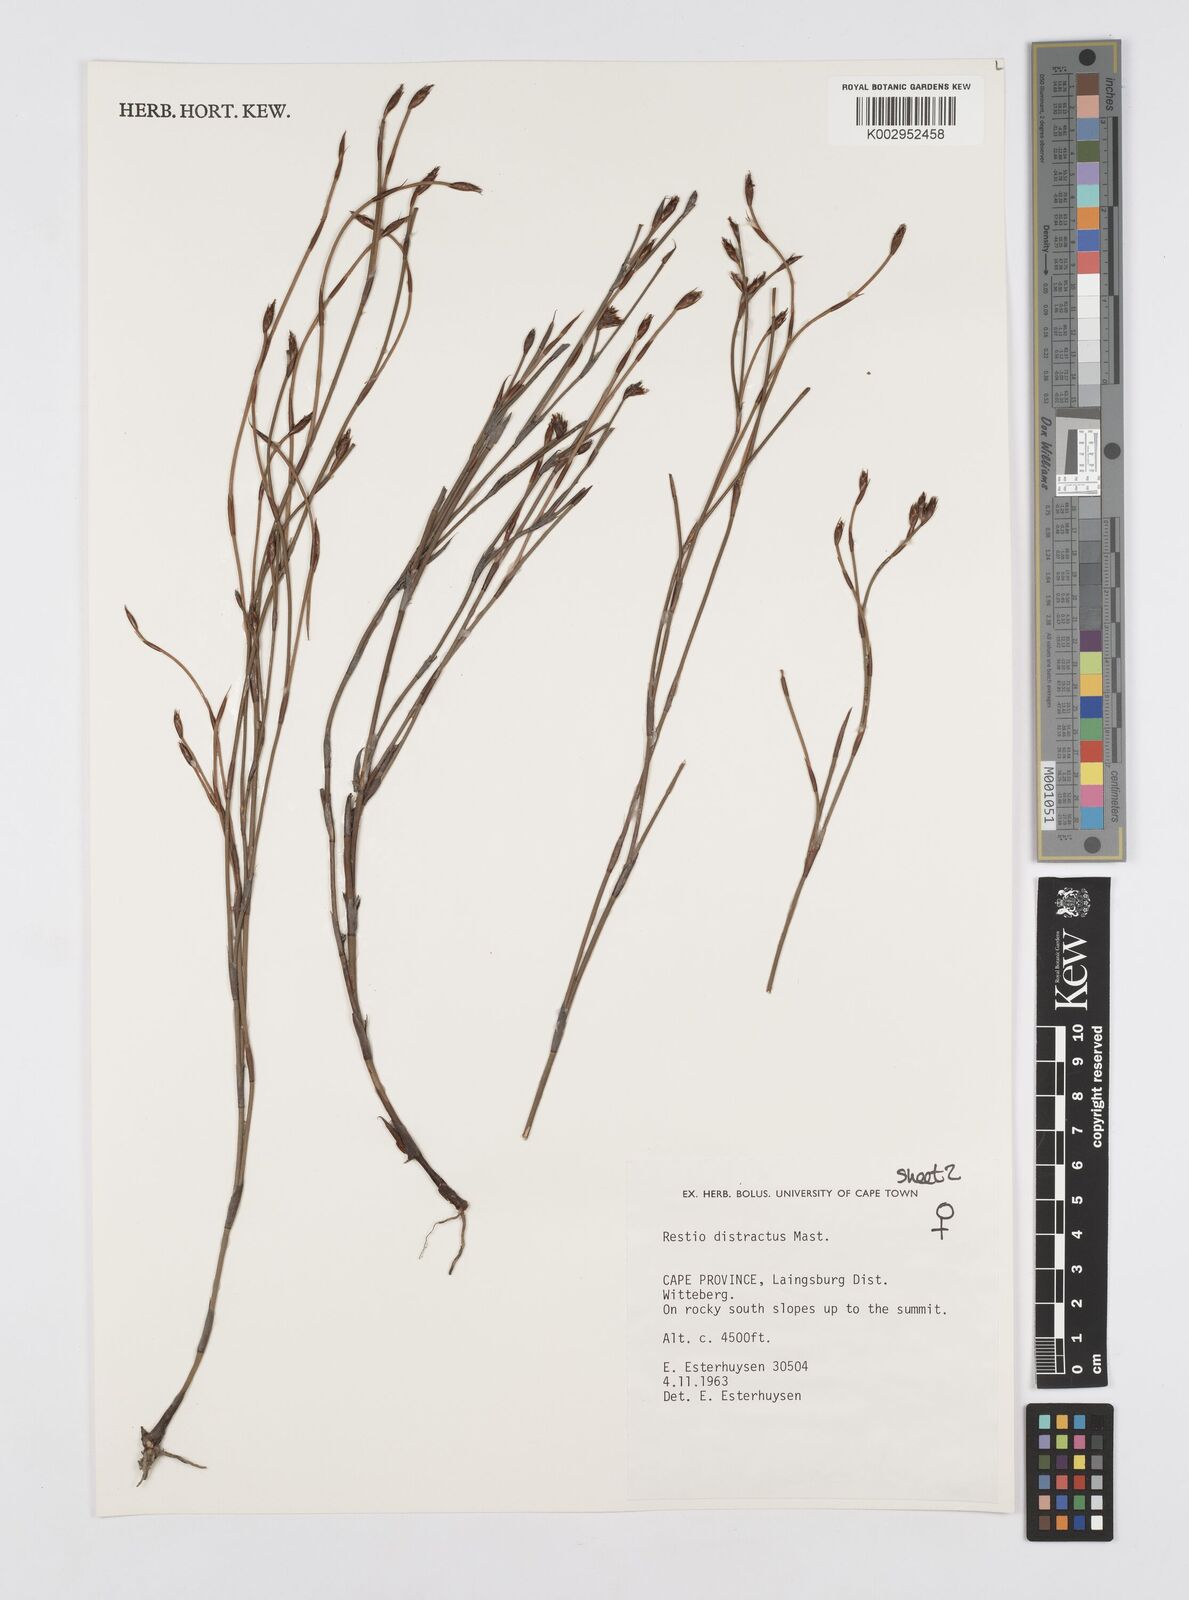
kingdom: Plantae
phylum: Tracheophyta
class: Liliopsida
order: Poales
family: Restionaceae
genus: Restio
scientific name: Restio distractus
